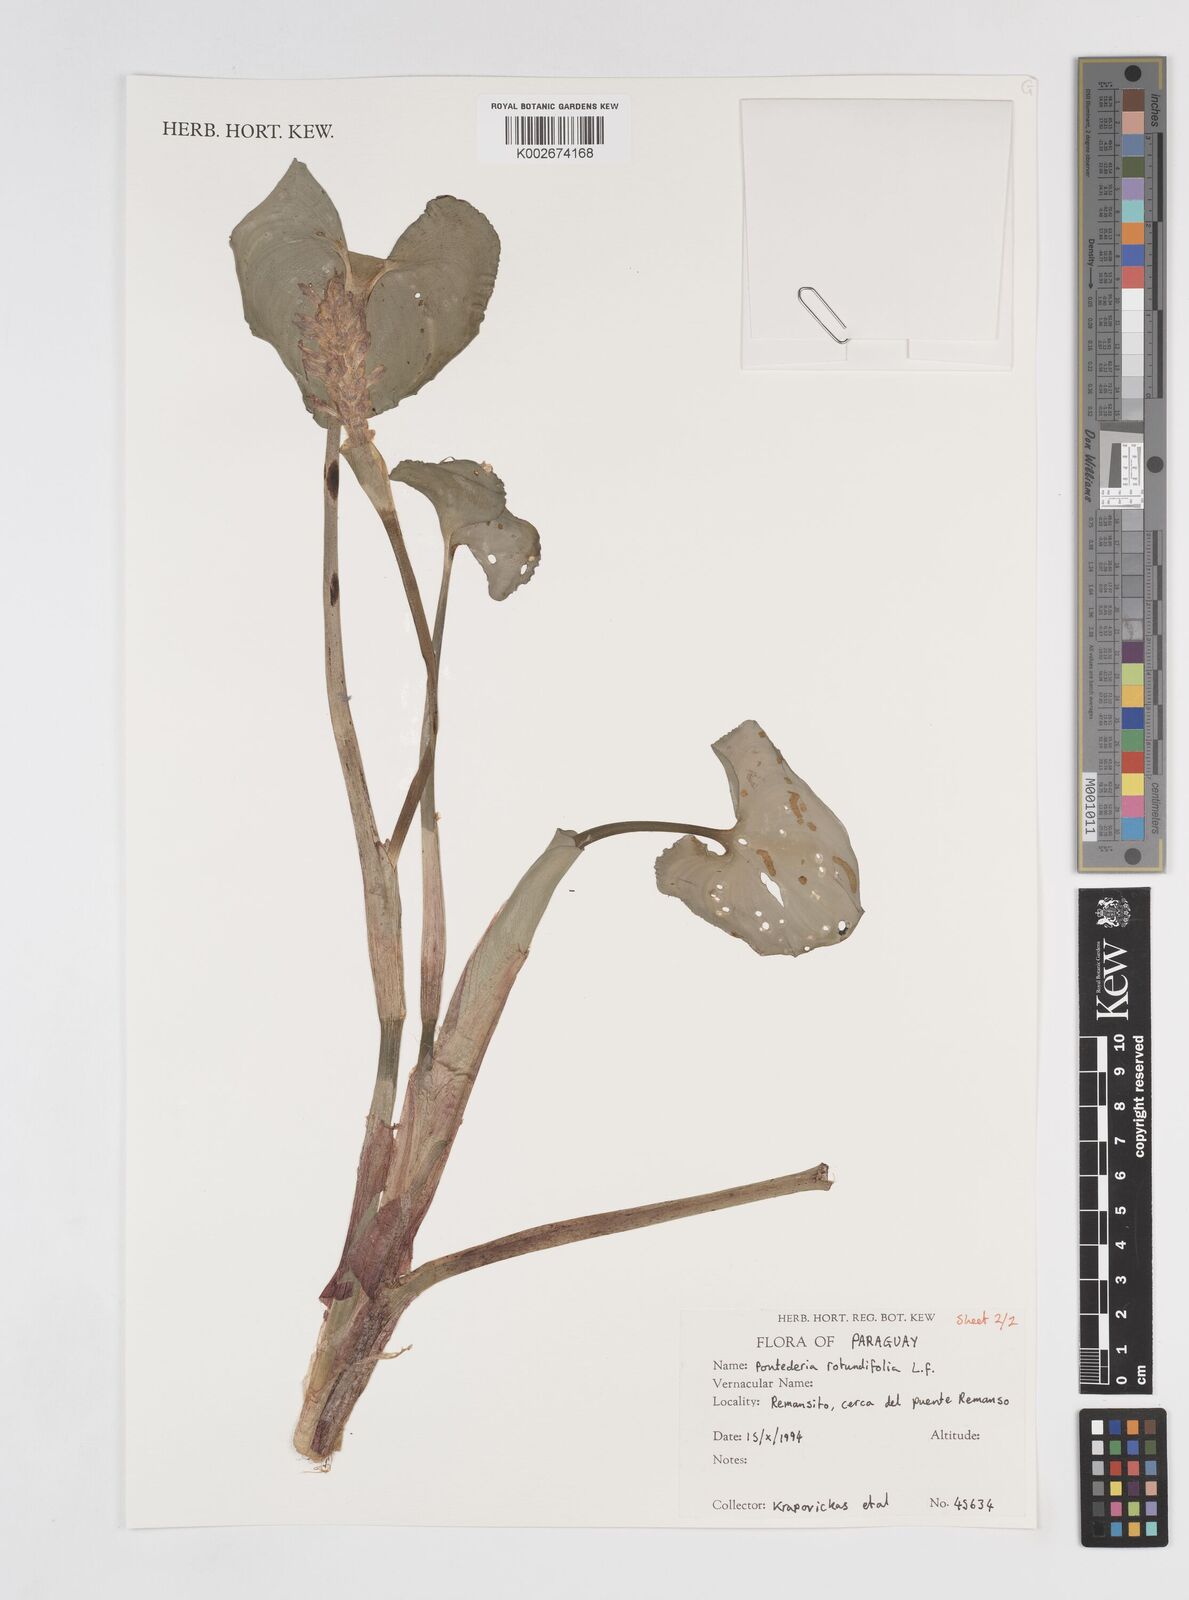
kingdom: Plantae
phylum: Tracheophyta
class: Liliopsida
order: Commelinales
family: Pontederiaceae
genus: Pontederia
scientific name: Pontederia rotundifolia
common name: Tropical pickerel-weed
